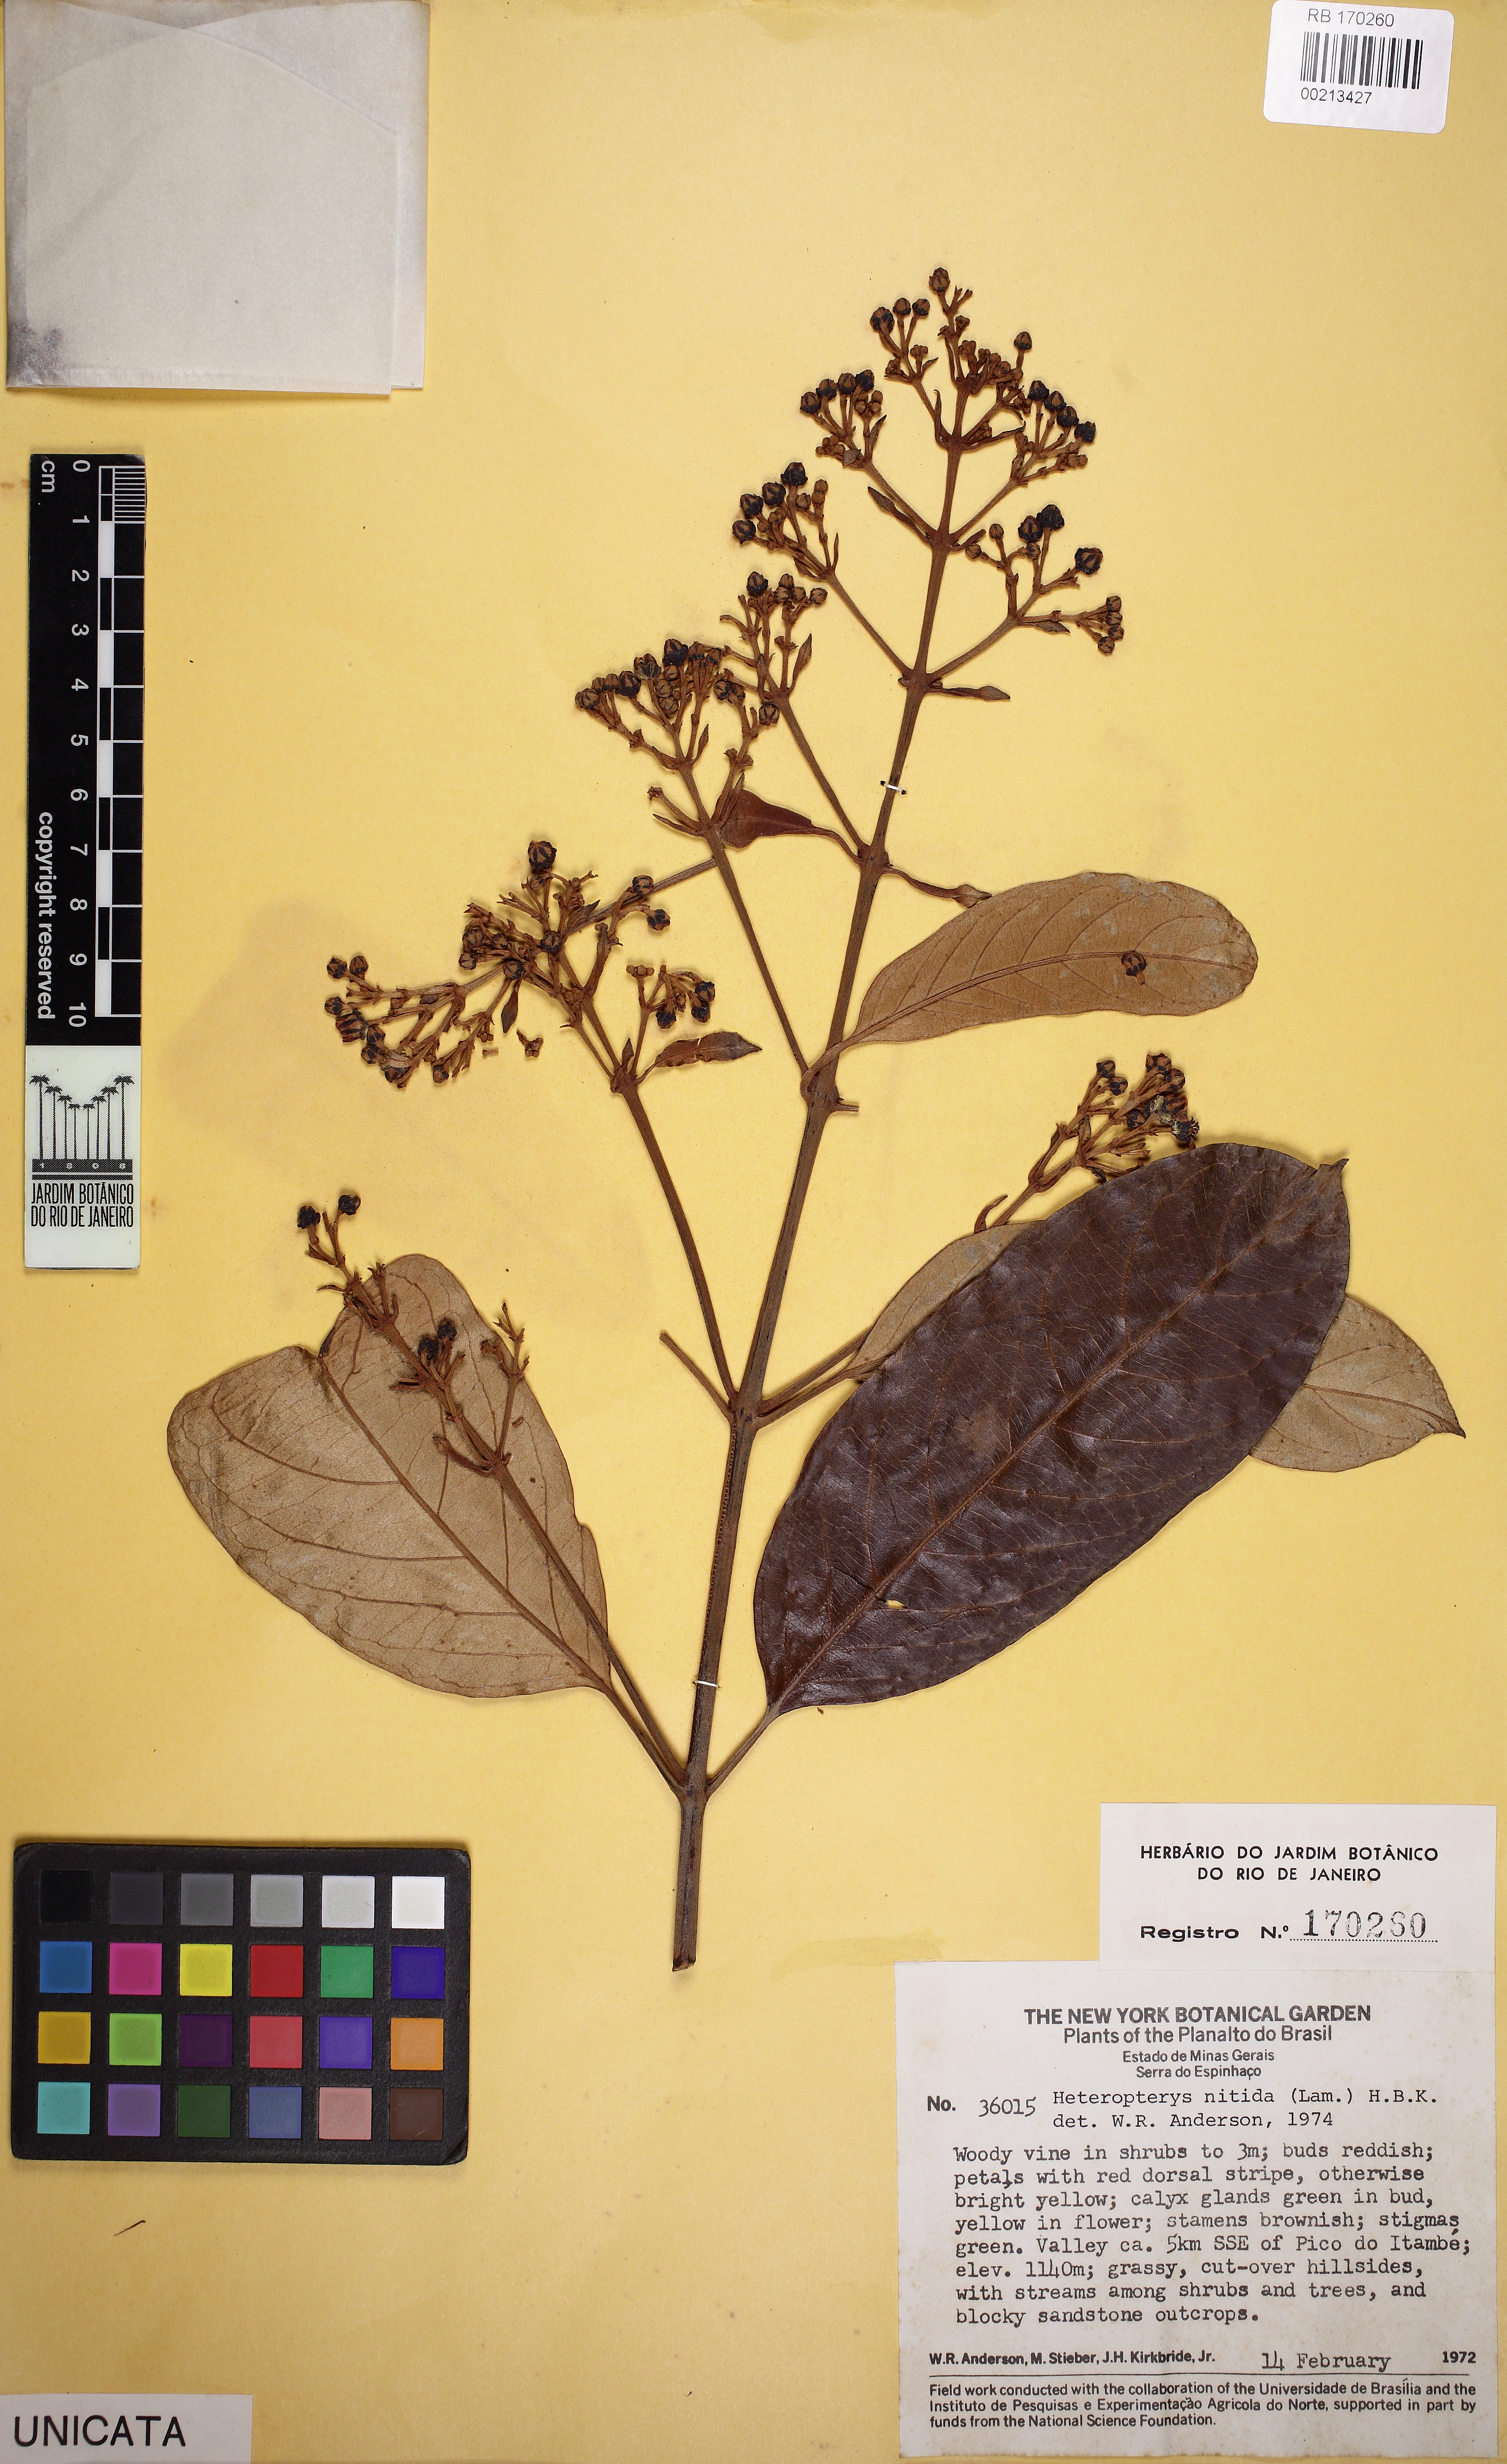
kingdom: Plantae
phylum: Tracheophyta
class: Magnoliopsida
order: Malpighiales
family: Malpighiaceae
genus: Heteropterys
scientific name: Heteropterys nitida
